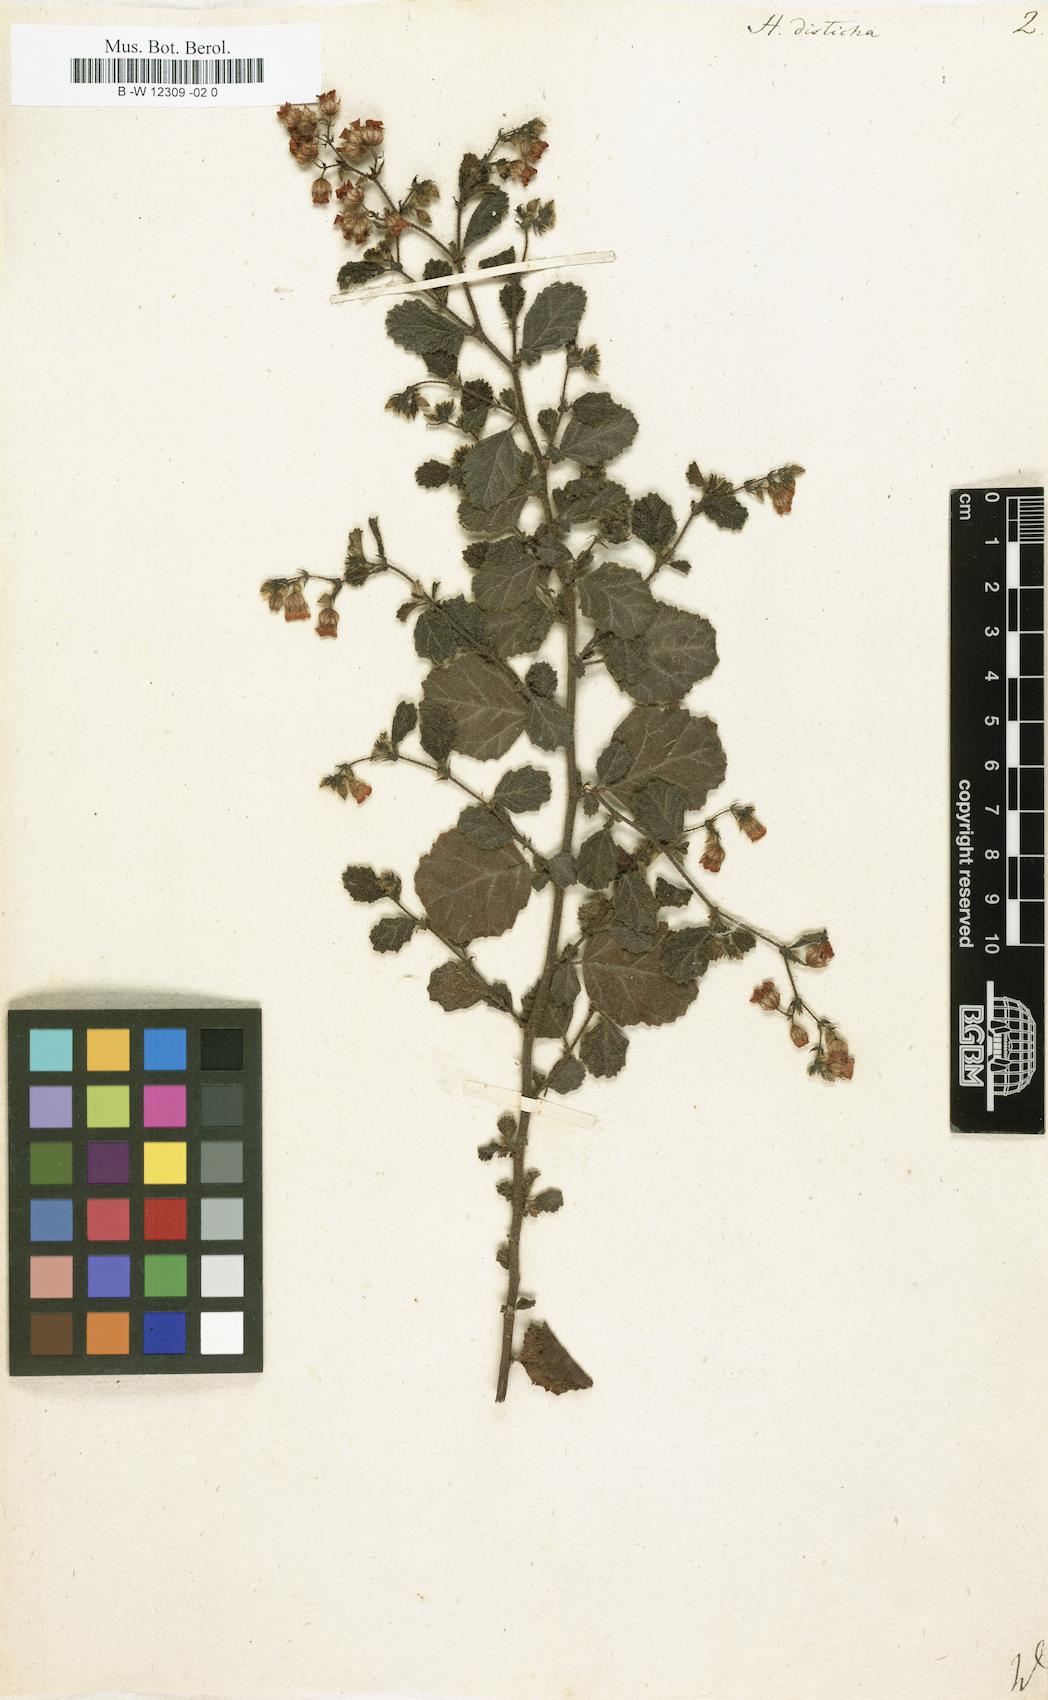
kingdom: Plantae
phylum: Tracheophyta
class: Magnoliopsida
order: Malvales
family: Malvaceae
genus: Hermannia
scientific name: Hermannia disticha
